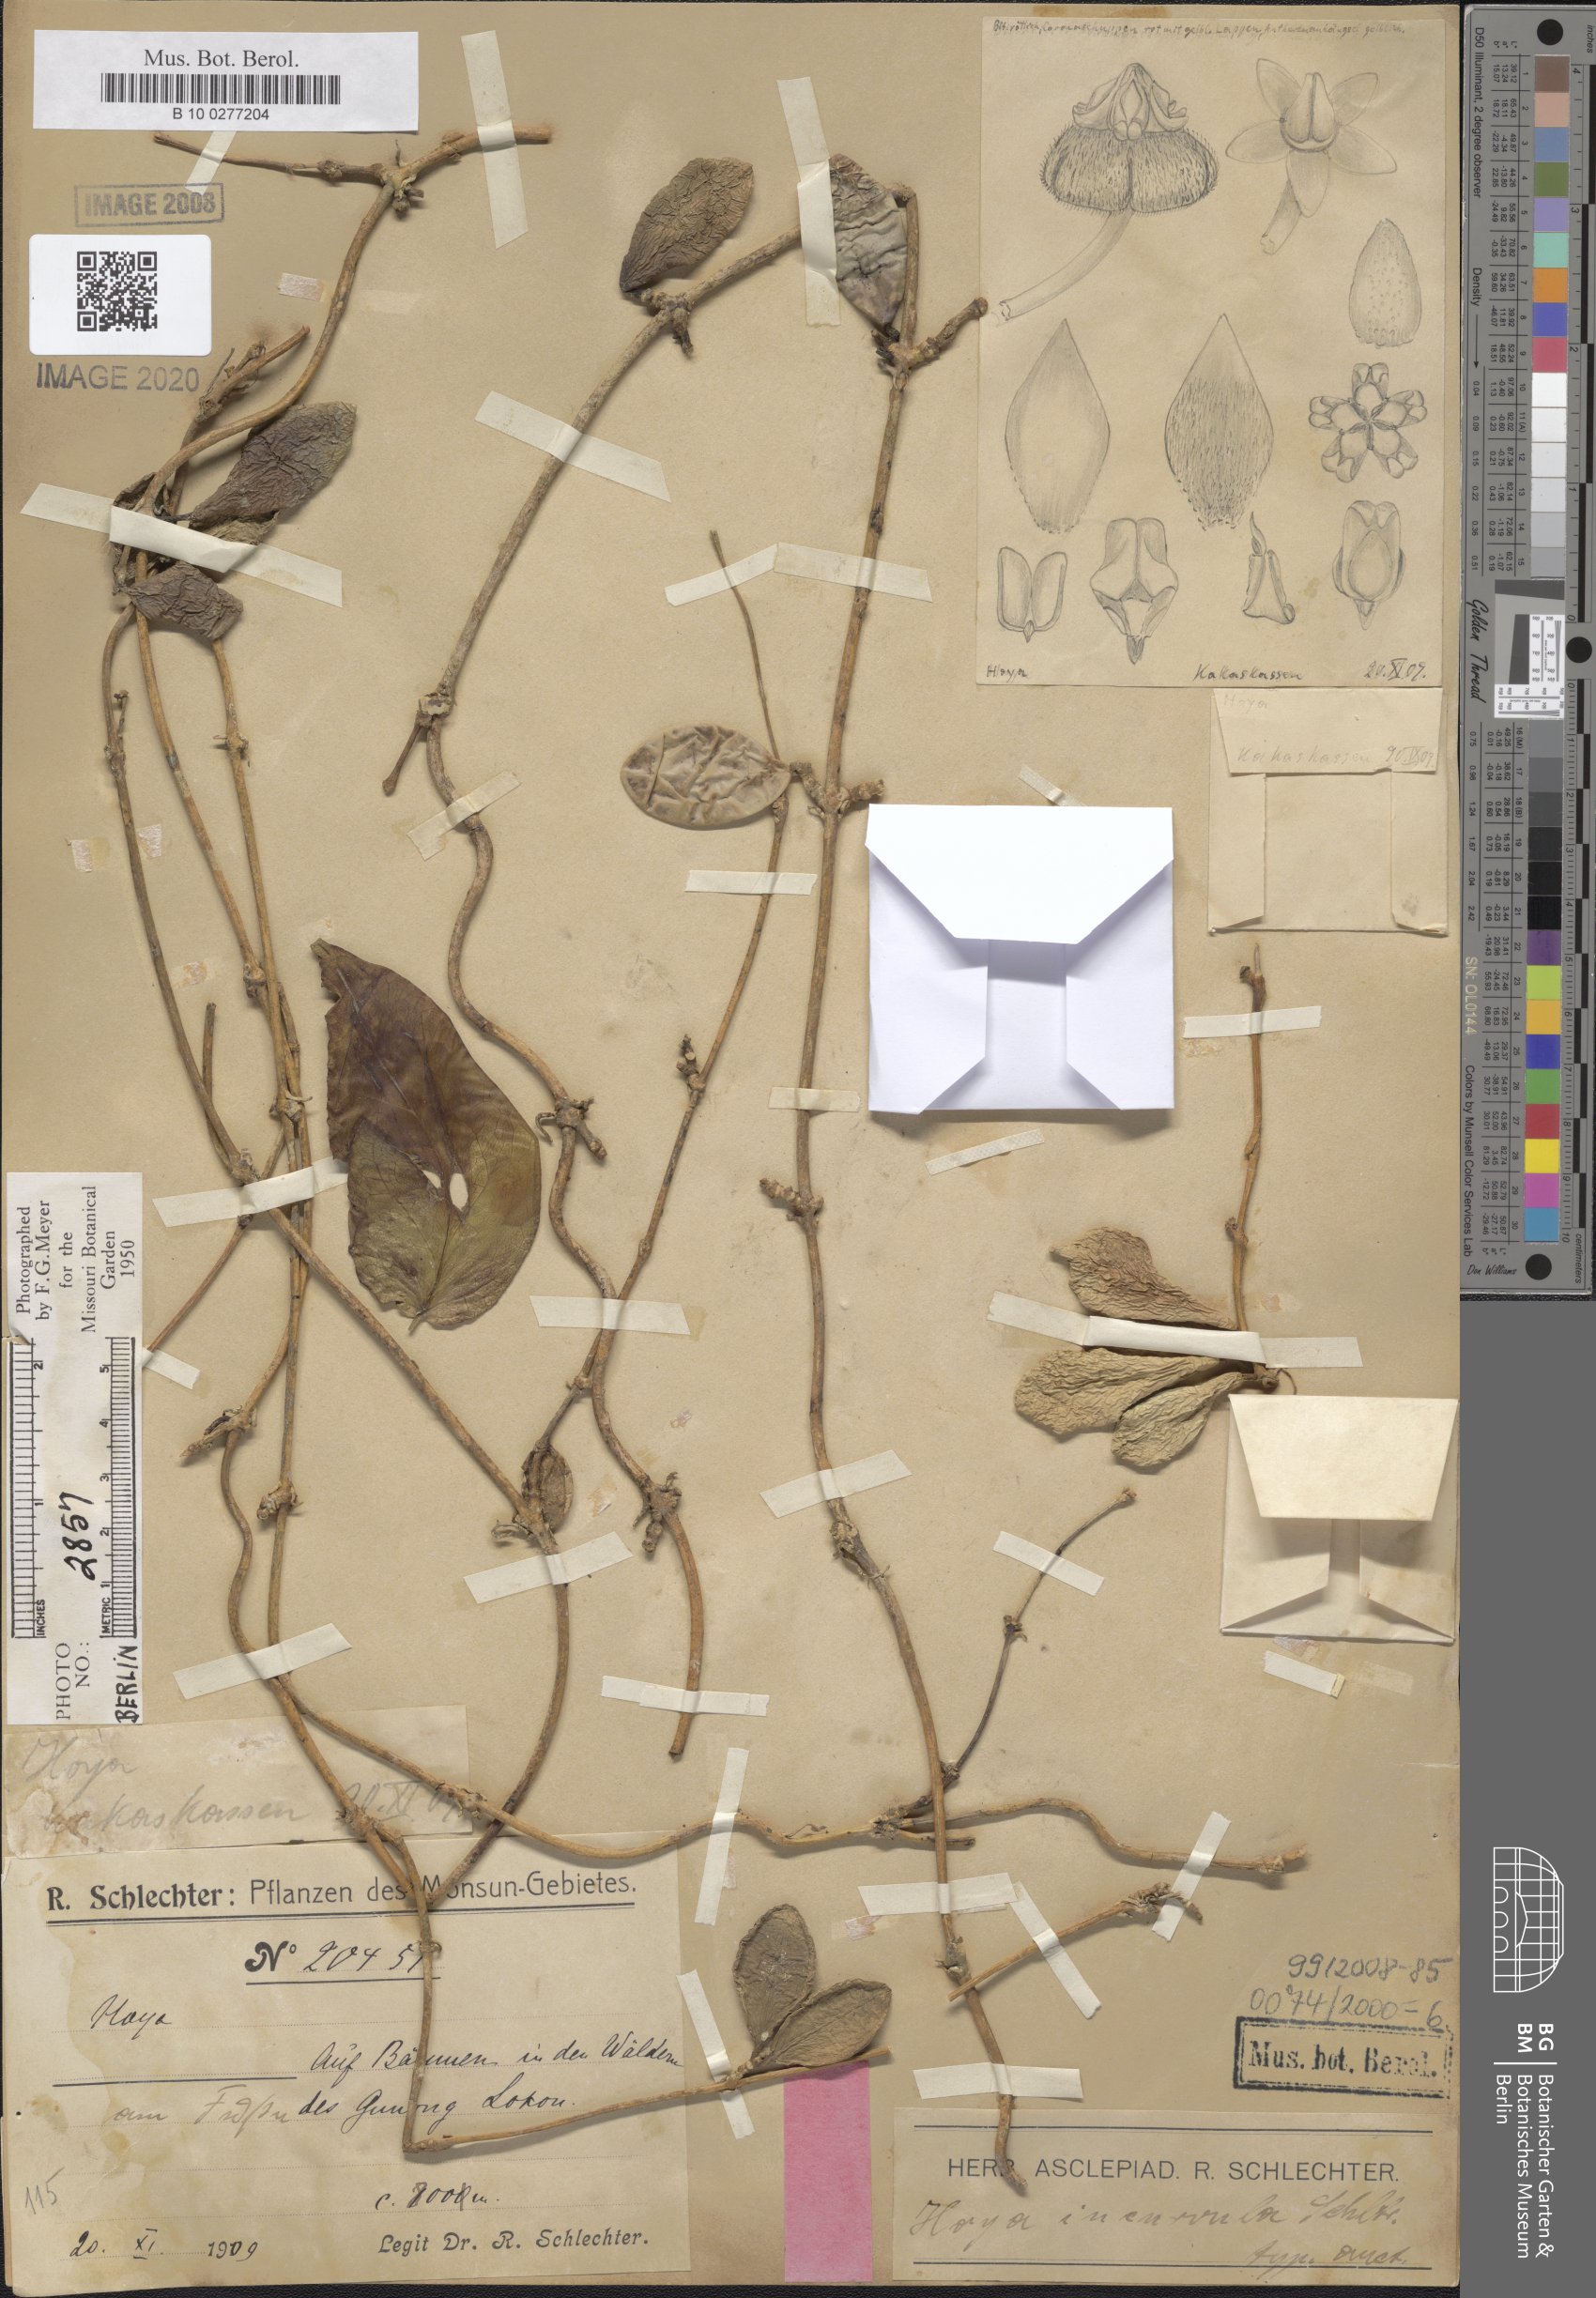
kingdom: Plantae
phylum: Tracheophyta
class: Magnoliopsida
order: Gentianales
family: Apocynaceae
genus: Hoya
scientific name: Hoya incurvula
